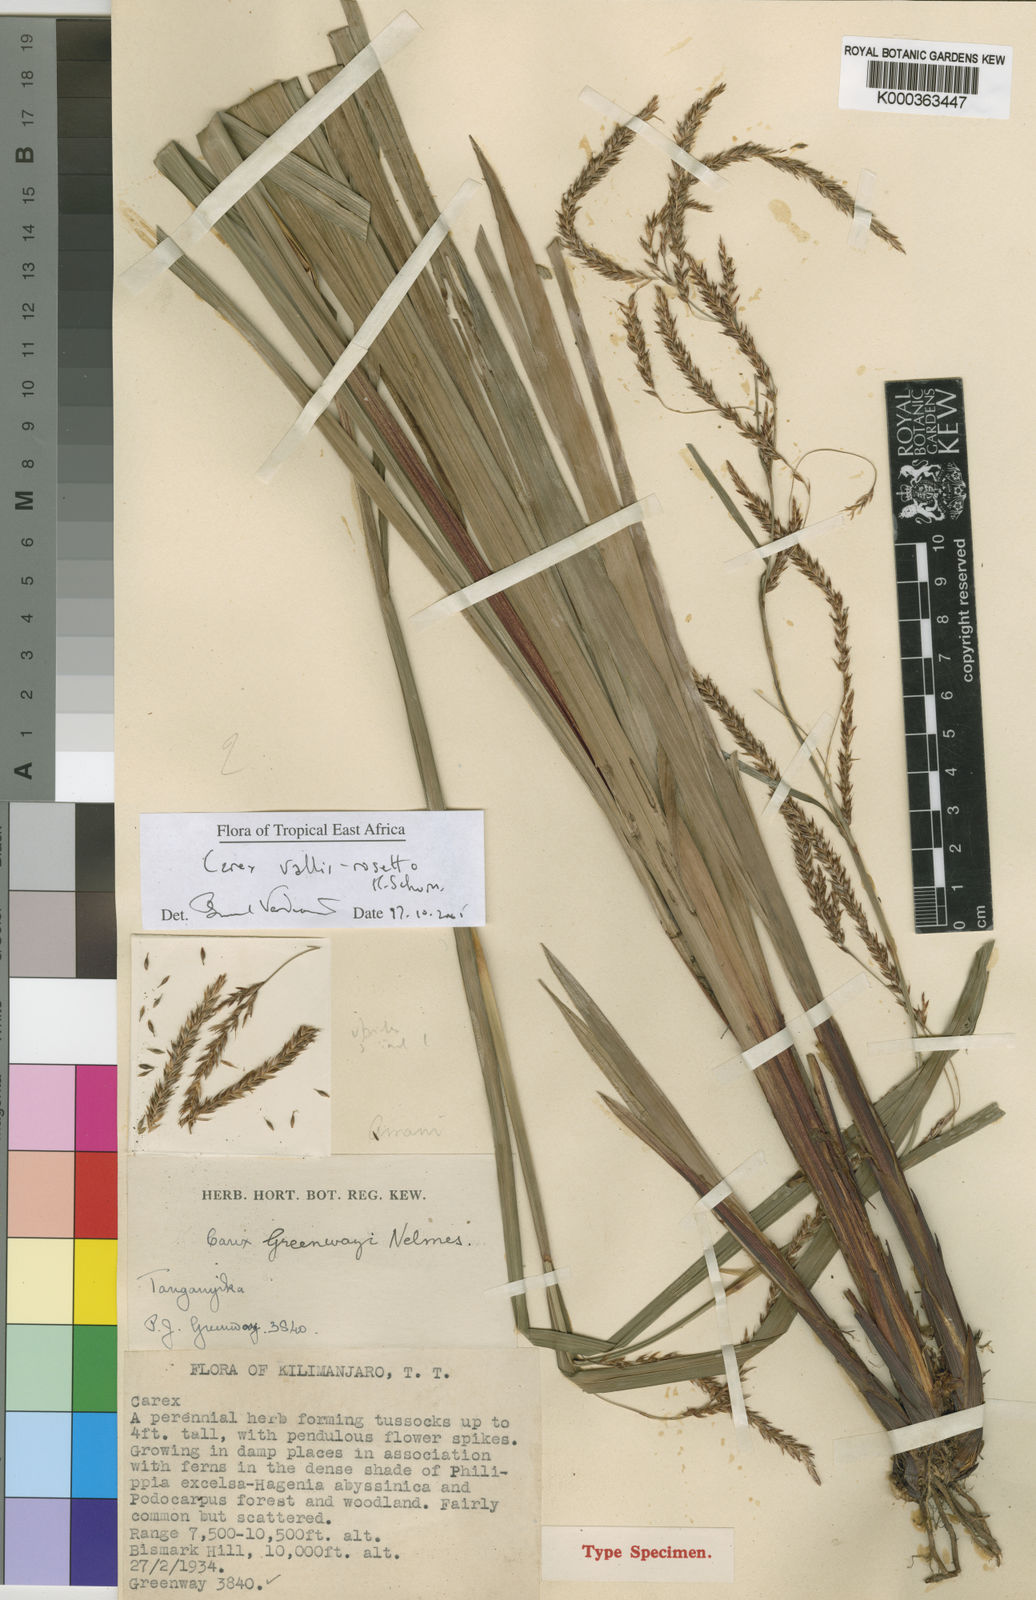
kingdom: Plantae
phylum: Tracheophyta
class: Liliopsida
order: Poales
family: Cyperaceae
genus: Carex
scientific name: Carex vallis-rosetto
